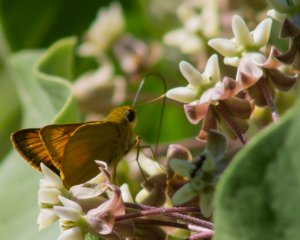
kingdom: Animalia
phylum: Arthropoda
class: Insecta
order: Lepidoptera
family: Hesperiidae
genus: Atrytone
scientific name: Atrytone delaware
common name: Delaware Skipper
